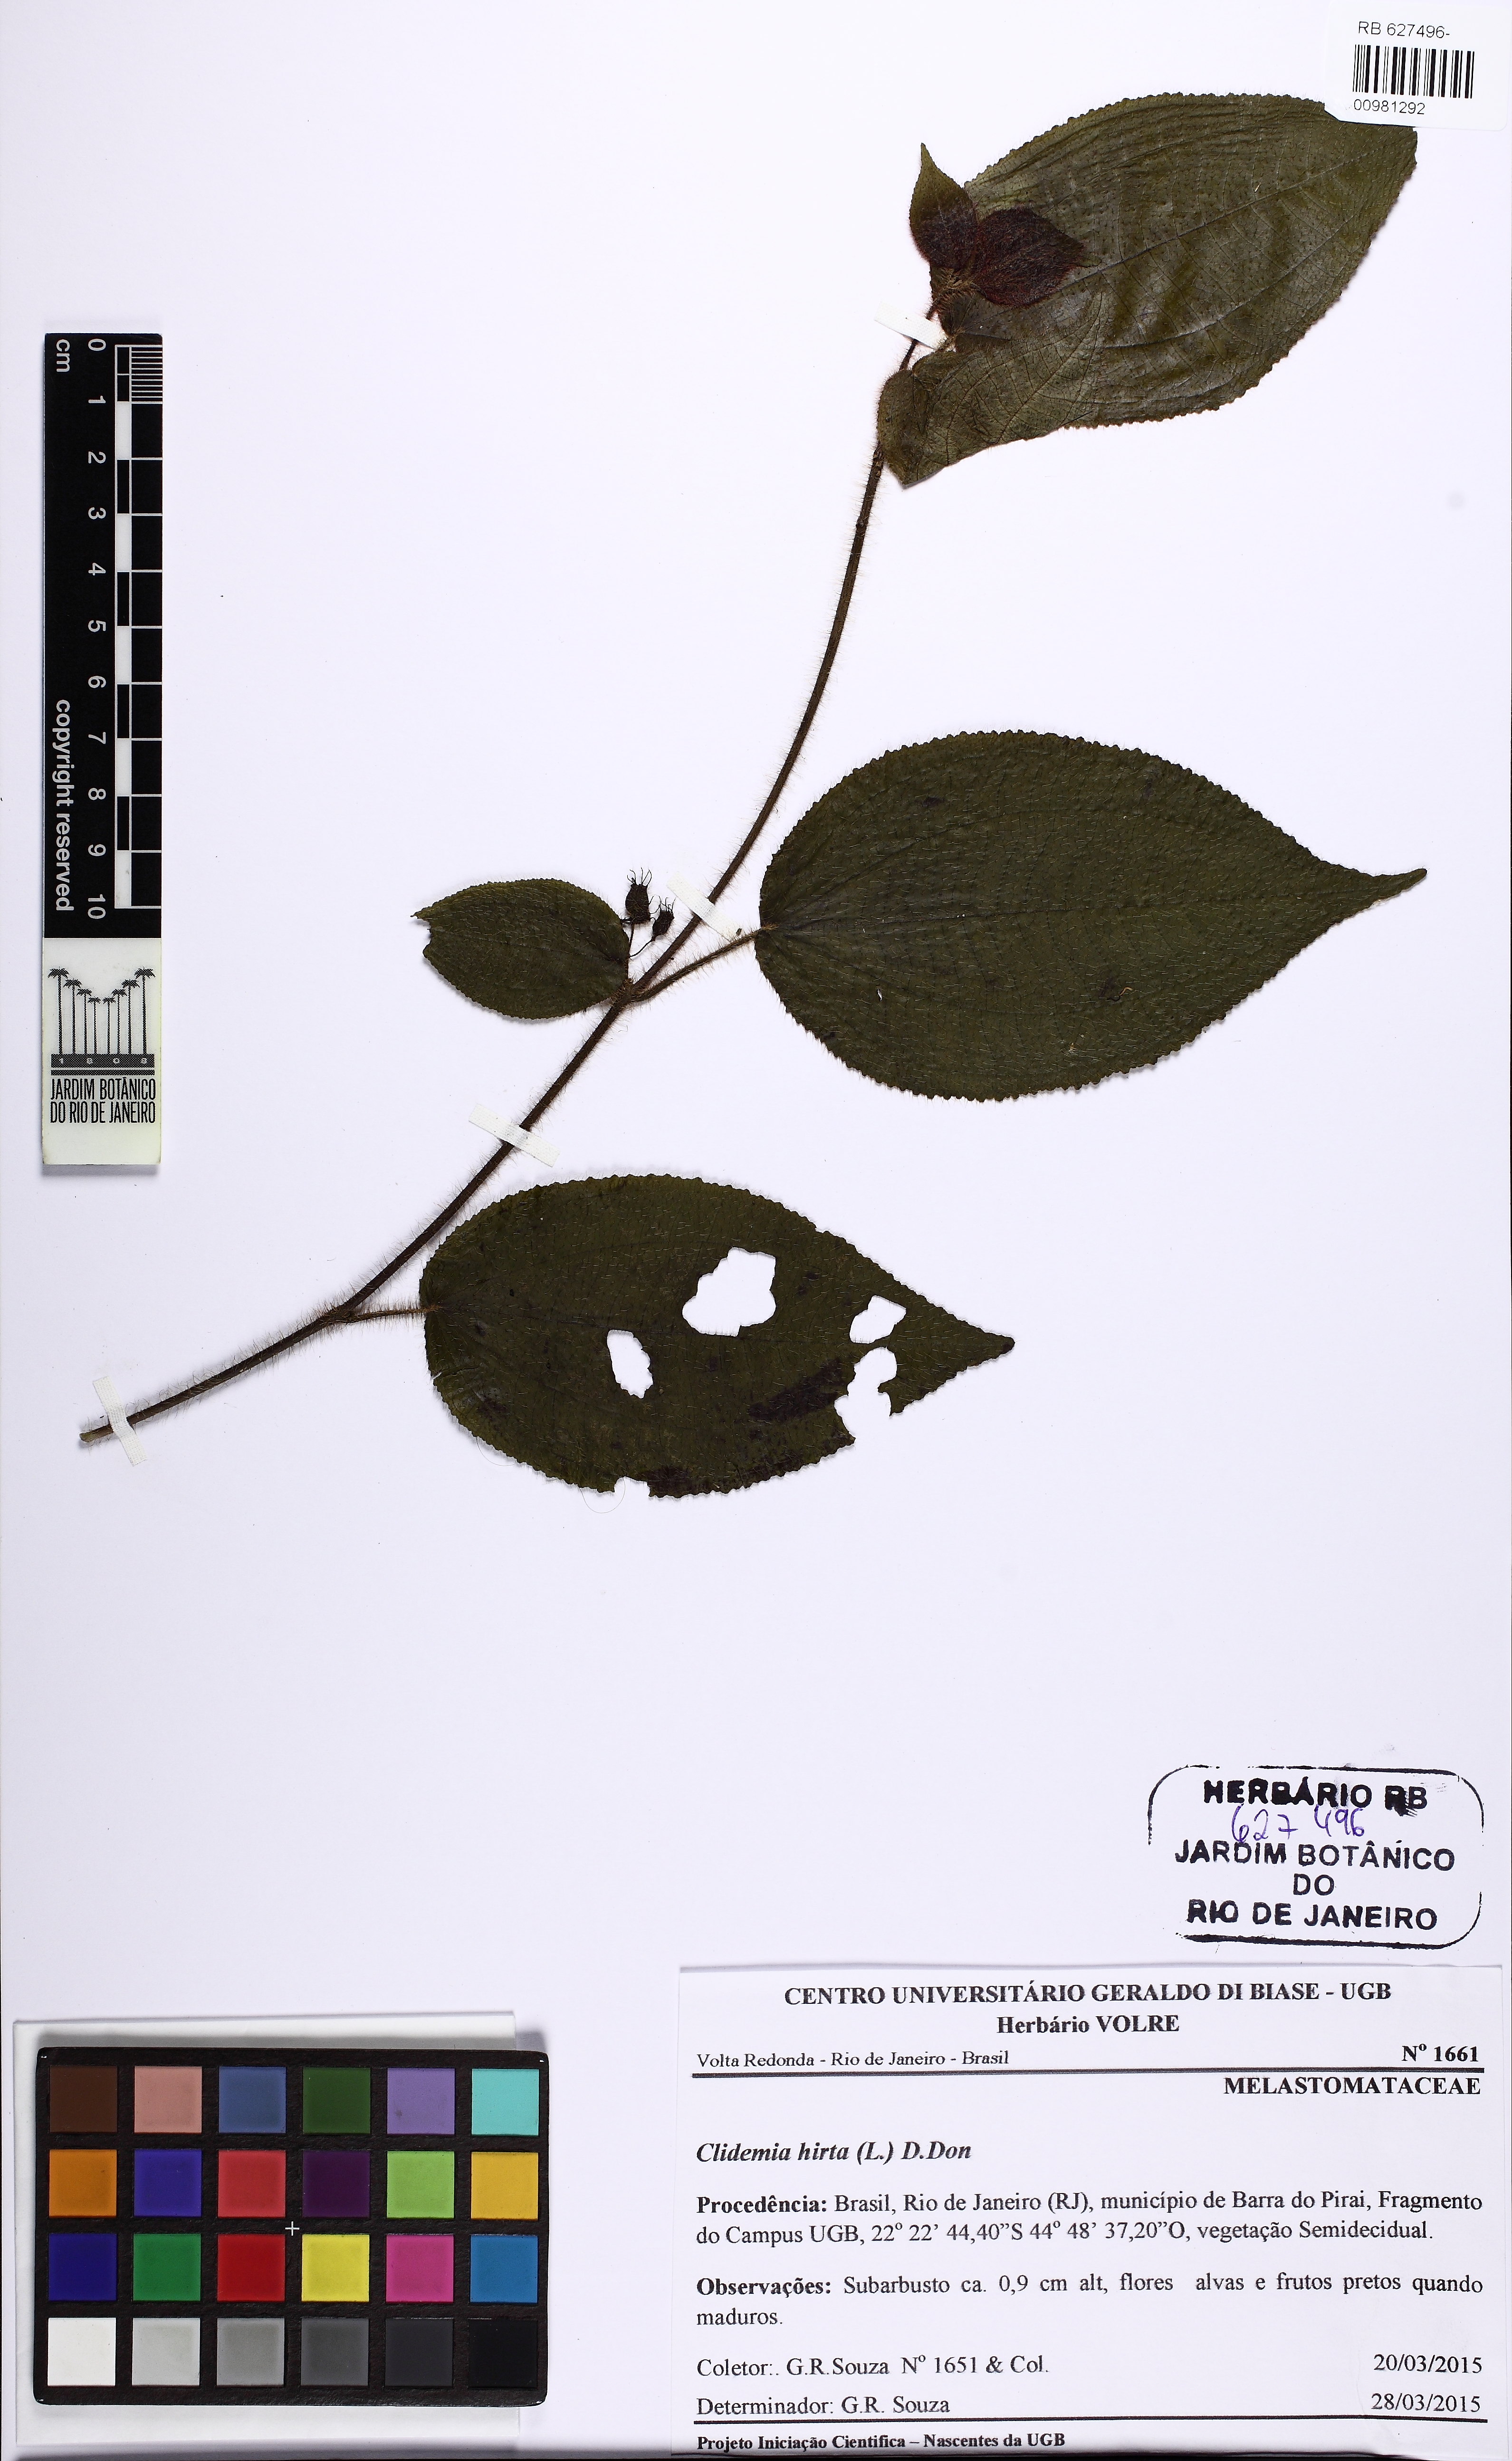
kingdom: Plantae
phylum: Tracheophyta
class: Magnoliopsida
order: Myrtales
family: Melastomataceae
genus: Miconia
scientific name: Miconia crenata
